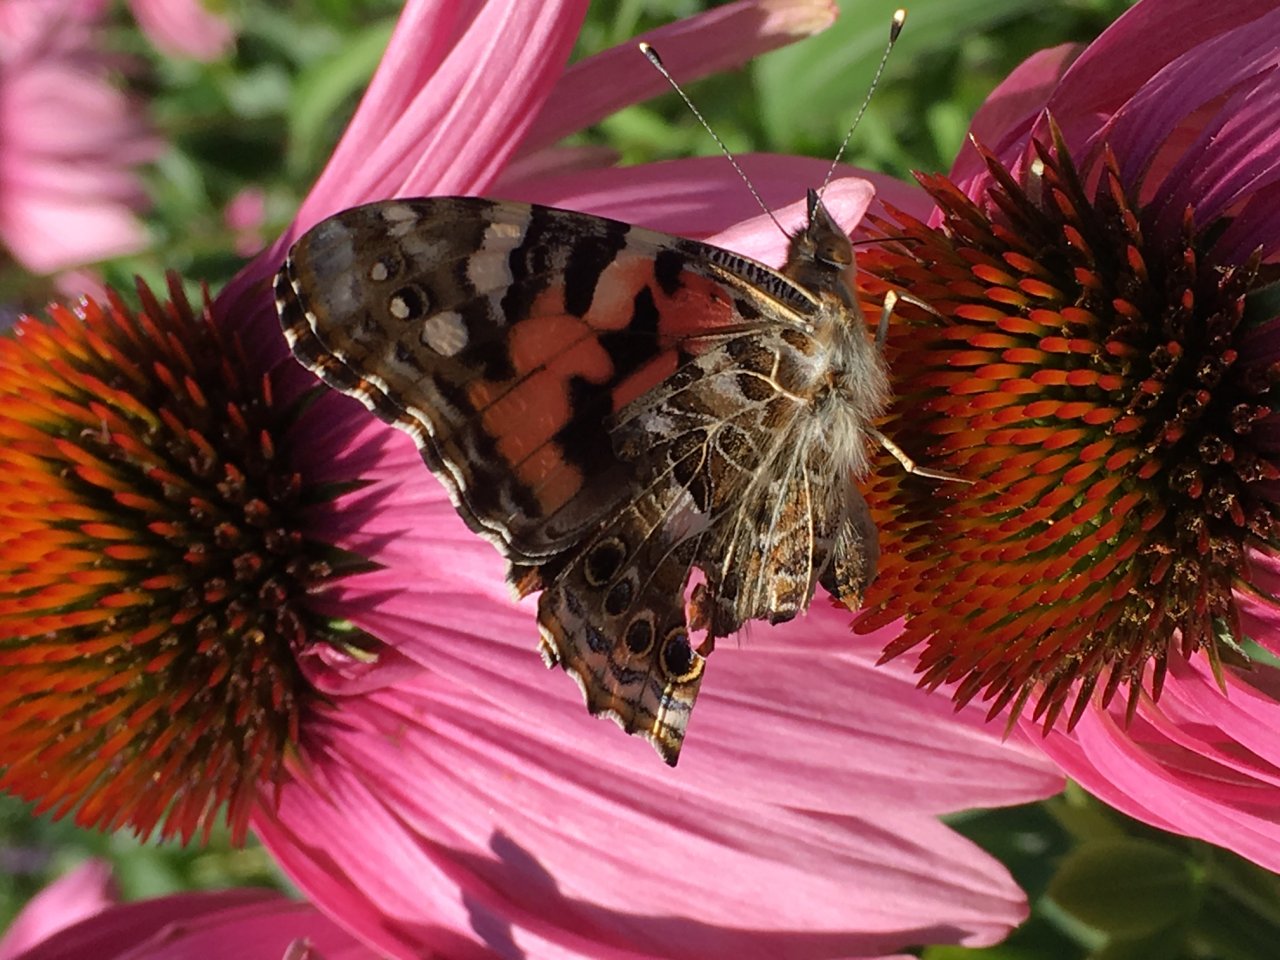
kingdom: Animalia
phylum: Arthropoda
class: Insecta
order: Lepidoptera
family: Nymphalidae
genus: Vanessa
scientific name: Vanessa cardui
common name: Painted Lady
